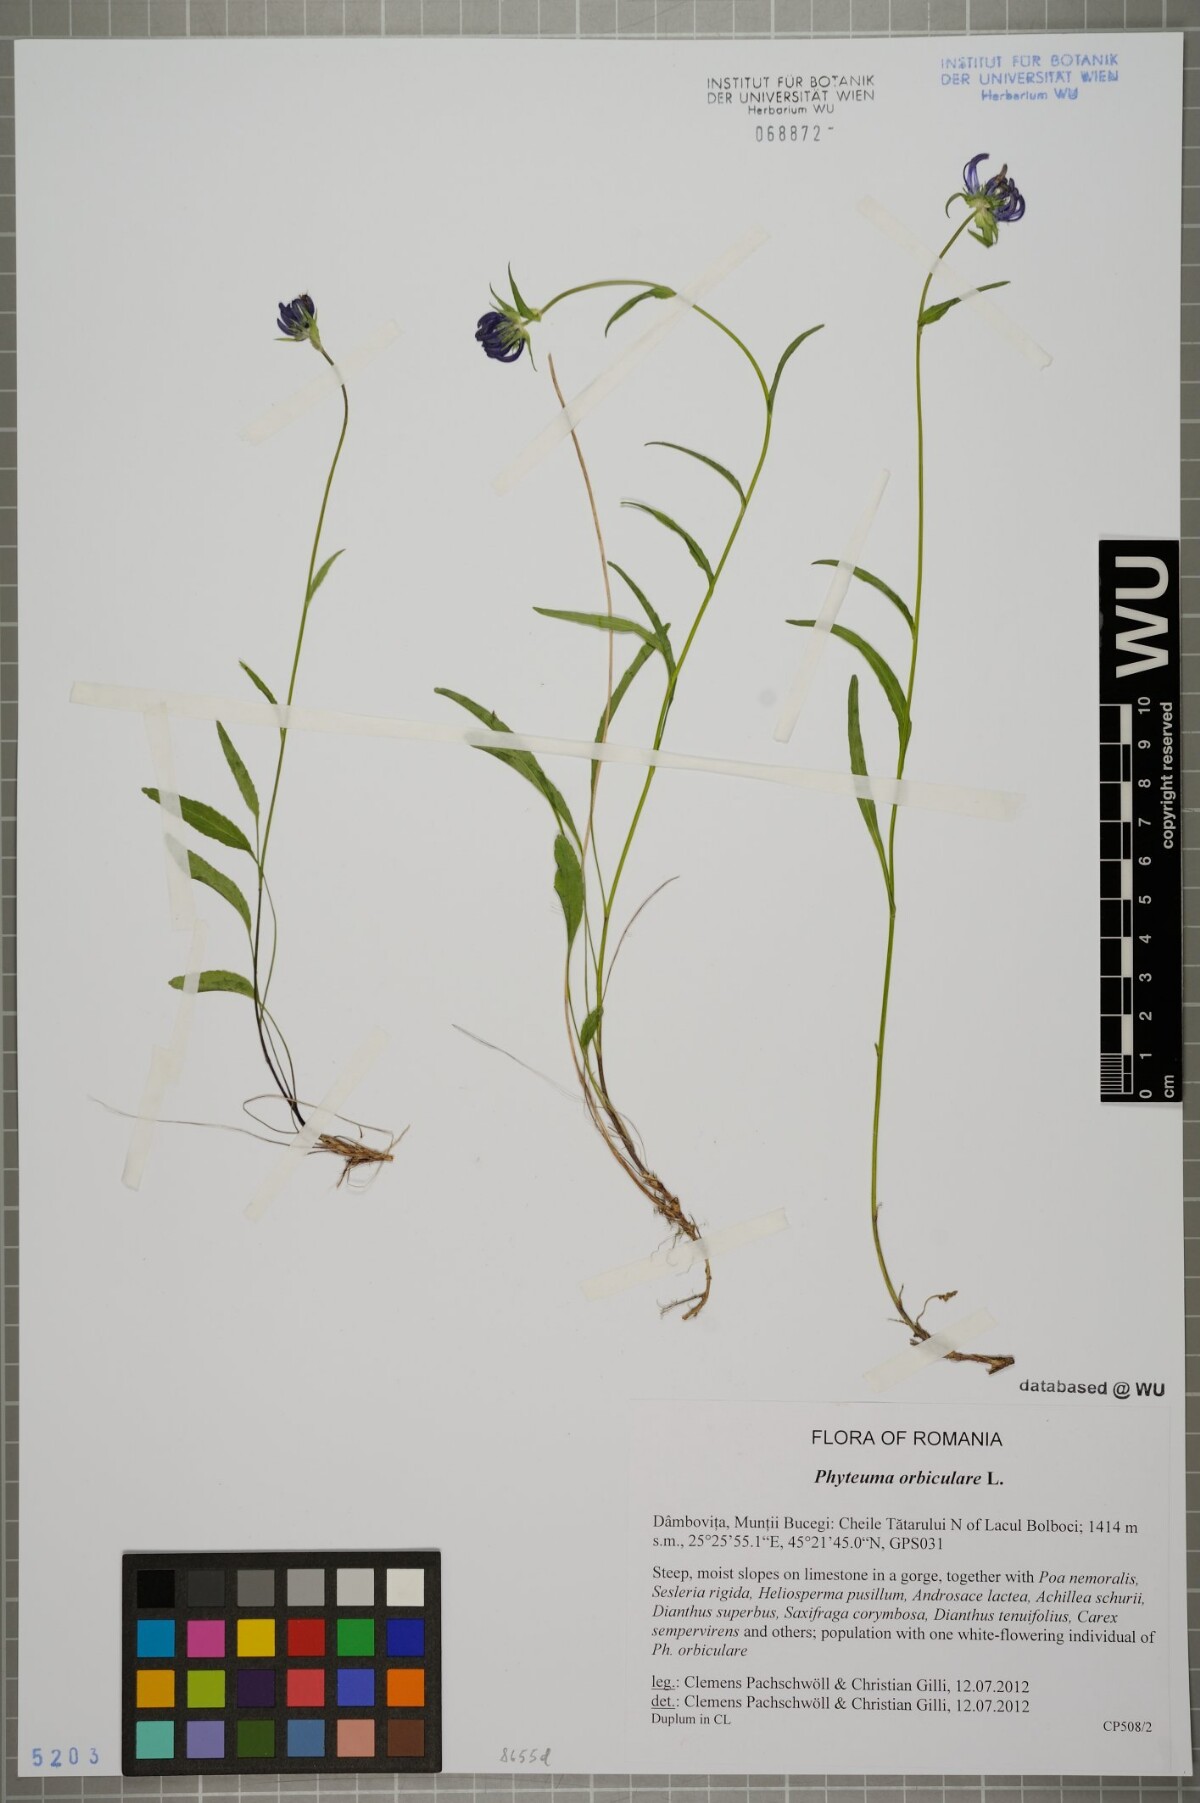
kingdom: Plantae
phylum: Tracheophyta
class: Magnoliopsida
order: Asterales
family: Campanulaceae
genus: Phyteuma
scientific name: Phyteuma orbiculare
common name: Round-headed rampion
